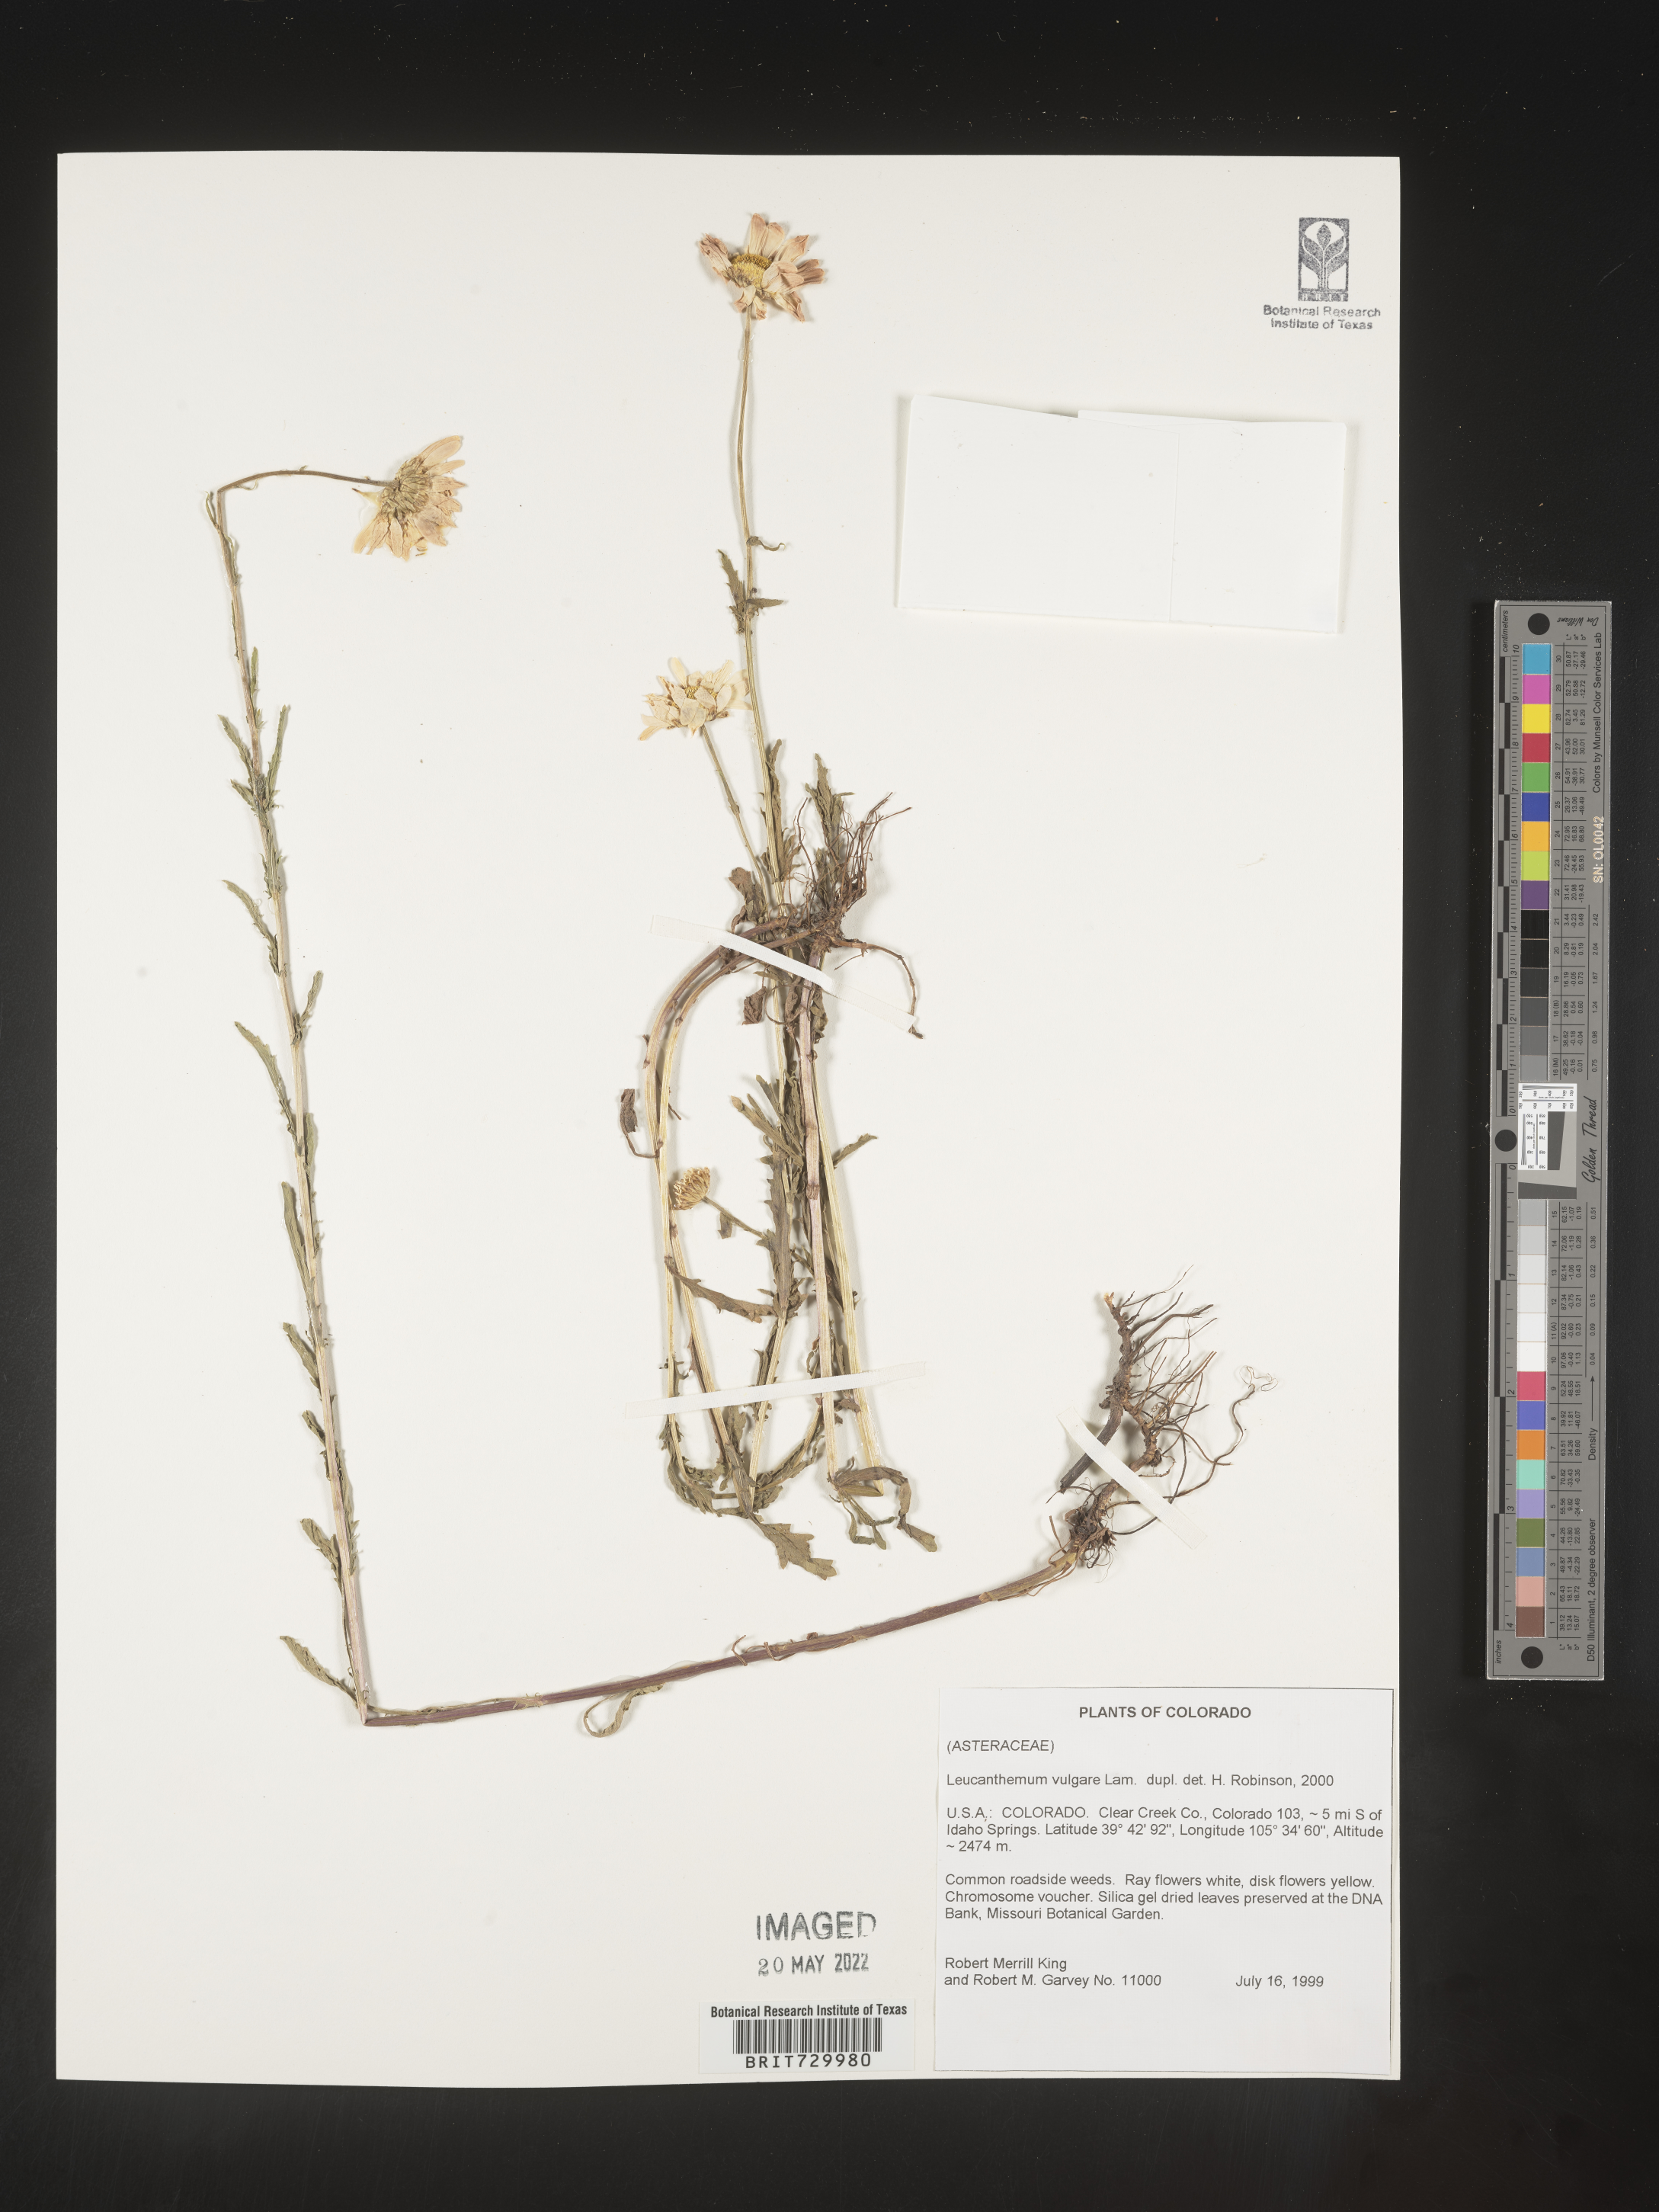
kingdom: Plantae
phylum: Tracheophyta
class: Magnoliopsida
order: Asterales
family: Asteraceae
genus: Leucanthemum
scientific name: Leucanthemum vulgare
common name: Oxeye daisy
